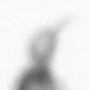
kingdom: Animalia
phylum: Arthropoda
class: Copepoda
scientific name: Copepoda
